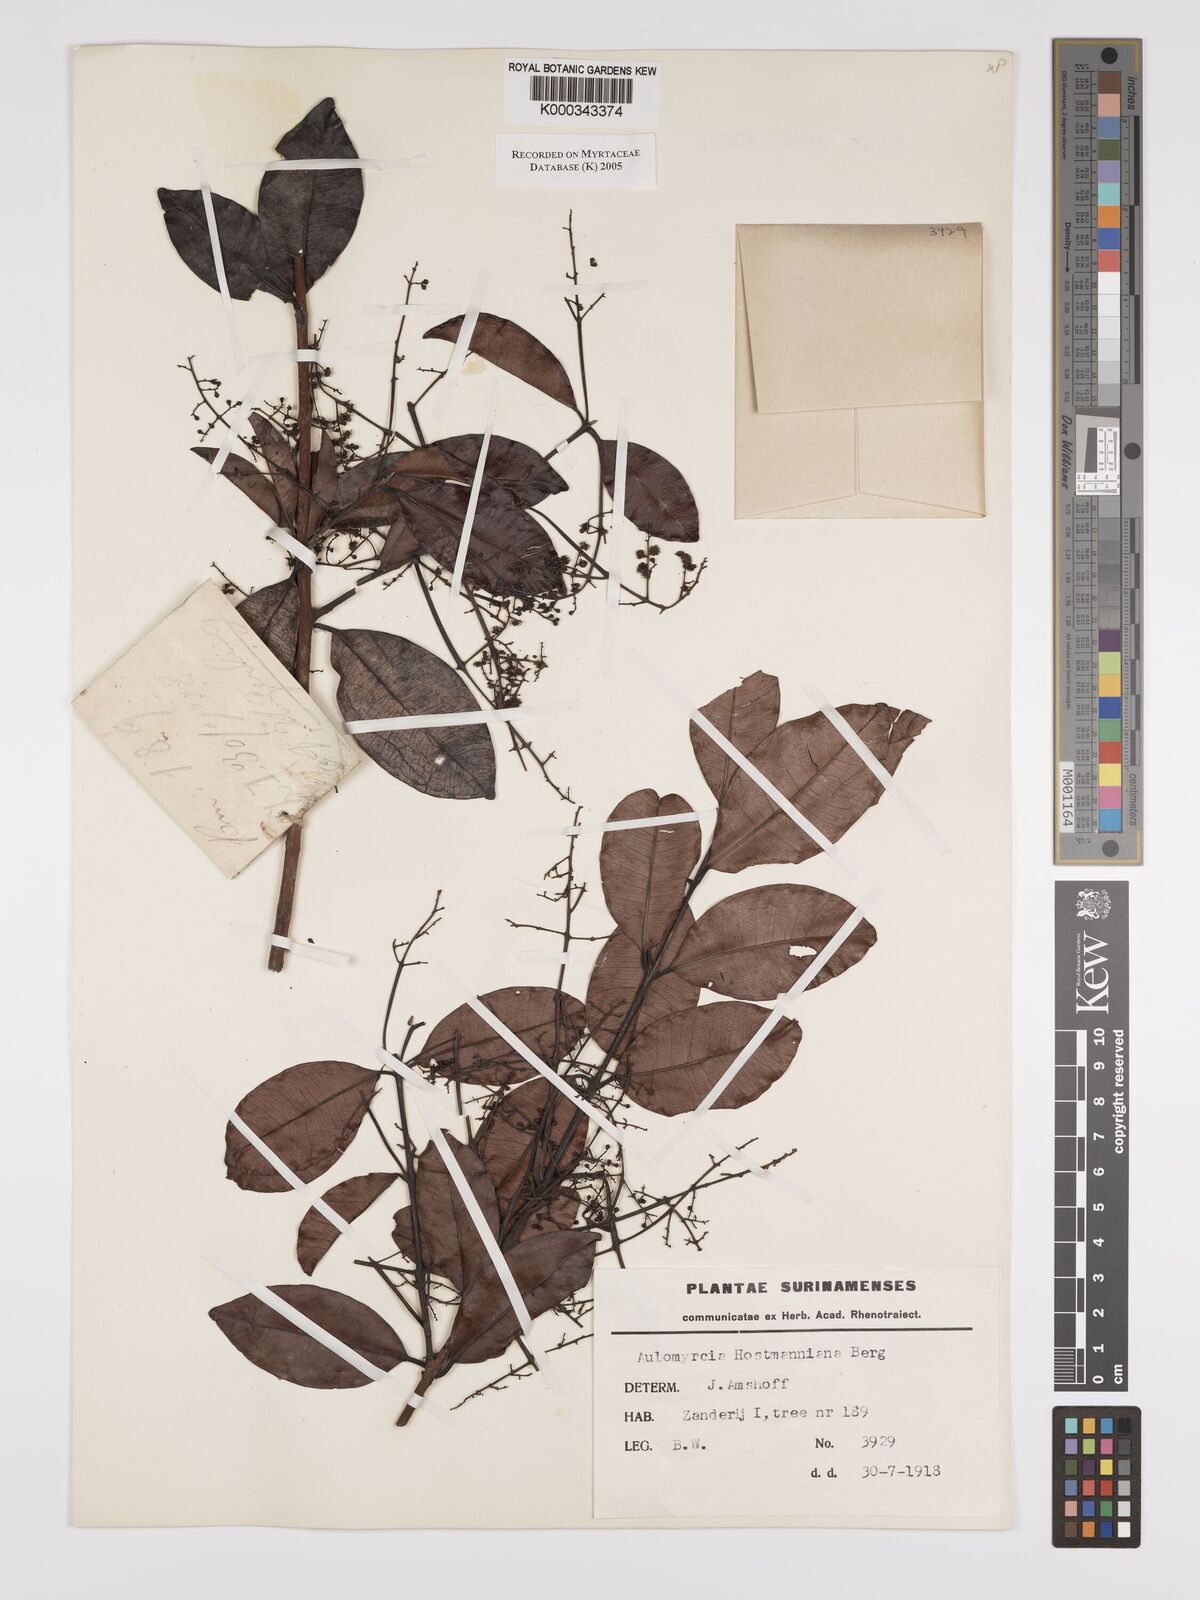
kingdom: Plantae
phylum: Tracheophyta
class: Magnoliopsida
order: Myrtales
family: Myrtaceae
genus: Myrcia
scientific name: Myrcia amazonica
